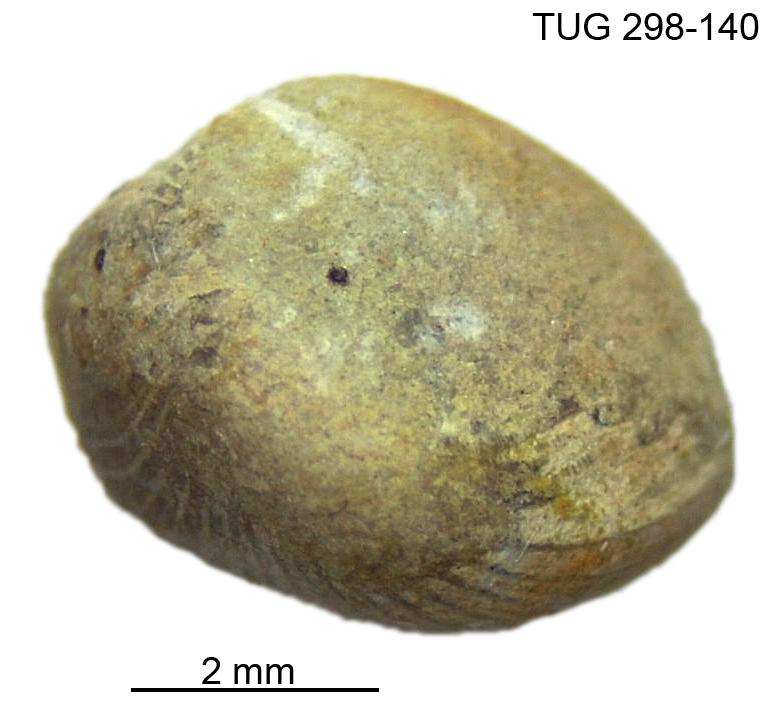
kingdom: Animalia
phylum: Mollusca
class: Rostroconchia
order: Conocardiida
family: Bransoniidae
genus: Mulceodens
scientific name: Mulceodens jaanussoni
